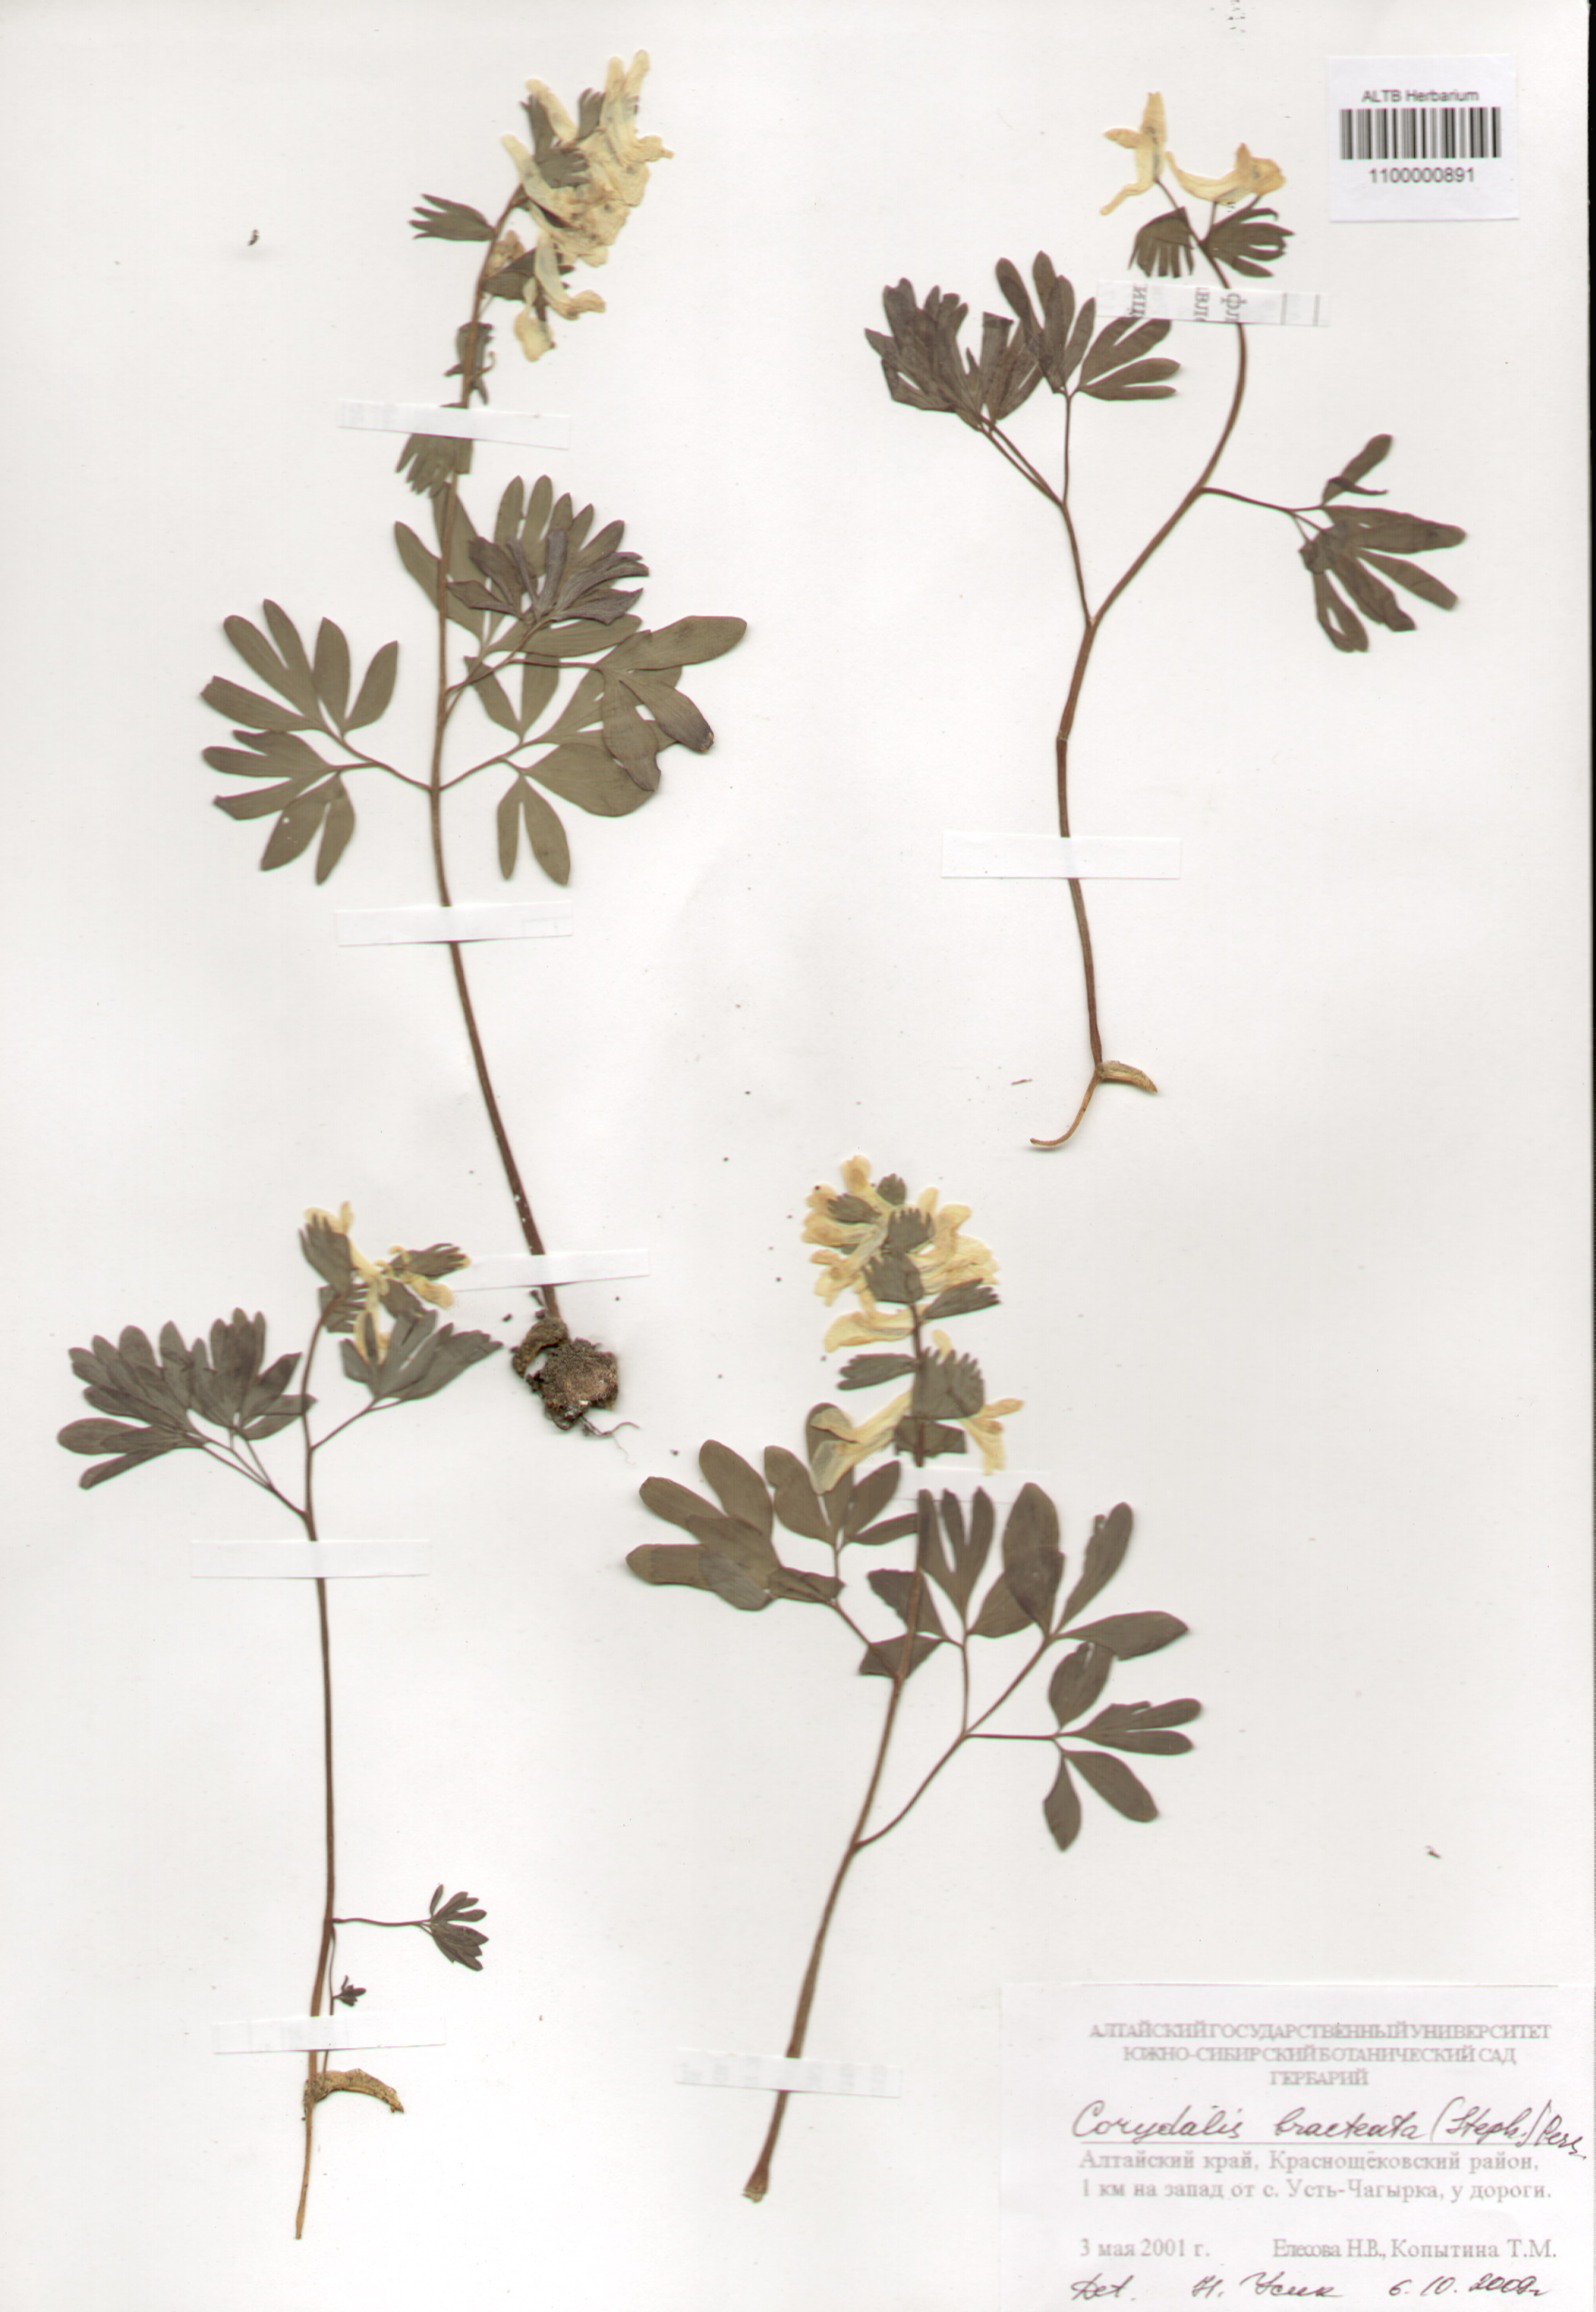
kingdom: Plantae
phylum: Tracheophyta
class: Magnoliopsida
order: Ranunculales
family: Papaveraceae
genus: Corydalis
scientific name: Corydalis bracteata
